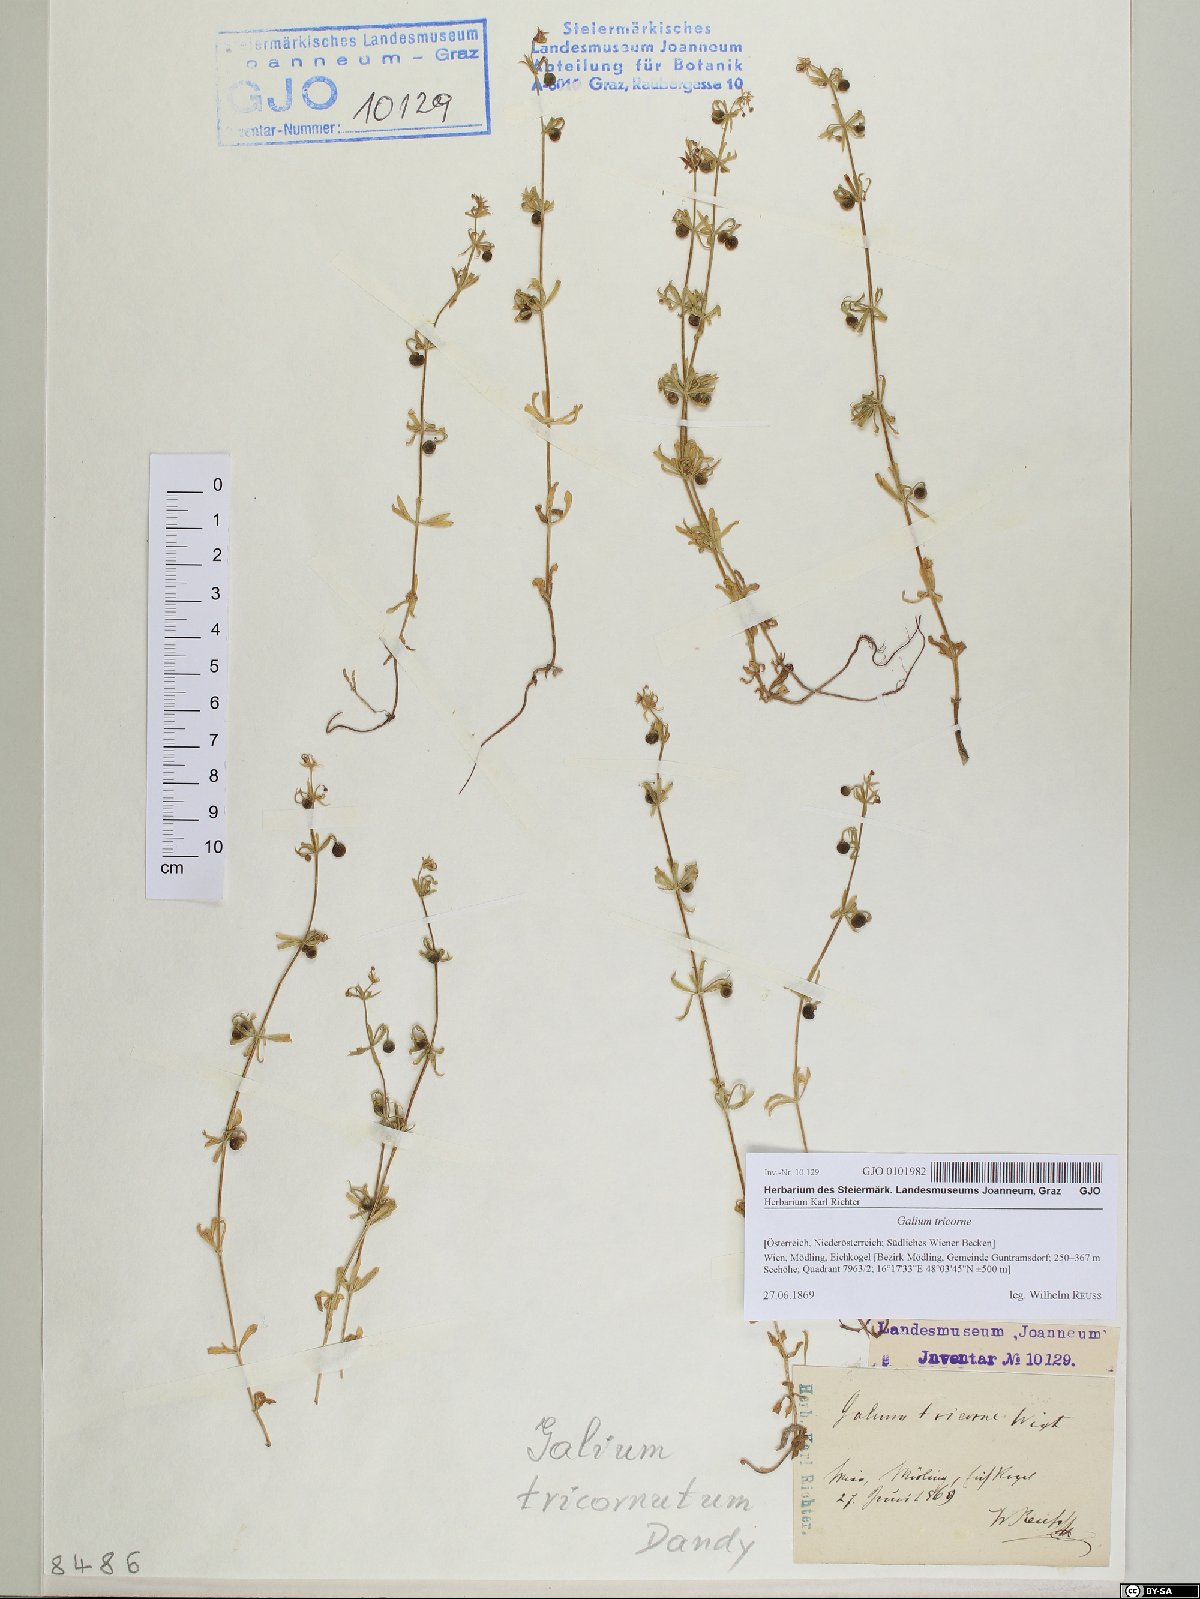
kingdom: Plantae
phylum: Tracheophyta
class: Magnoliopsida
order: Gentianales
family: Rubiaceae
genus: Galium
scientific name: Galium verrucosum
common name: Warty bedstraw
